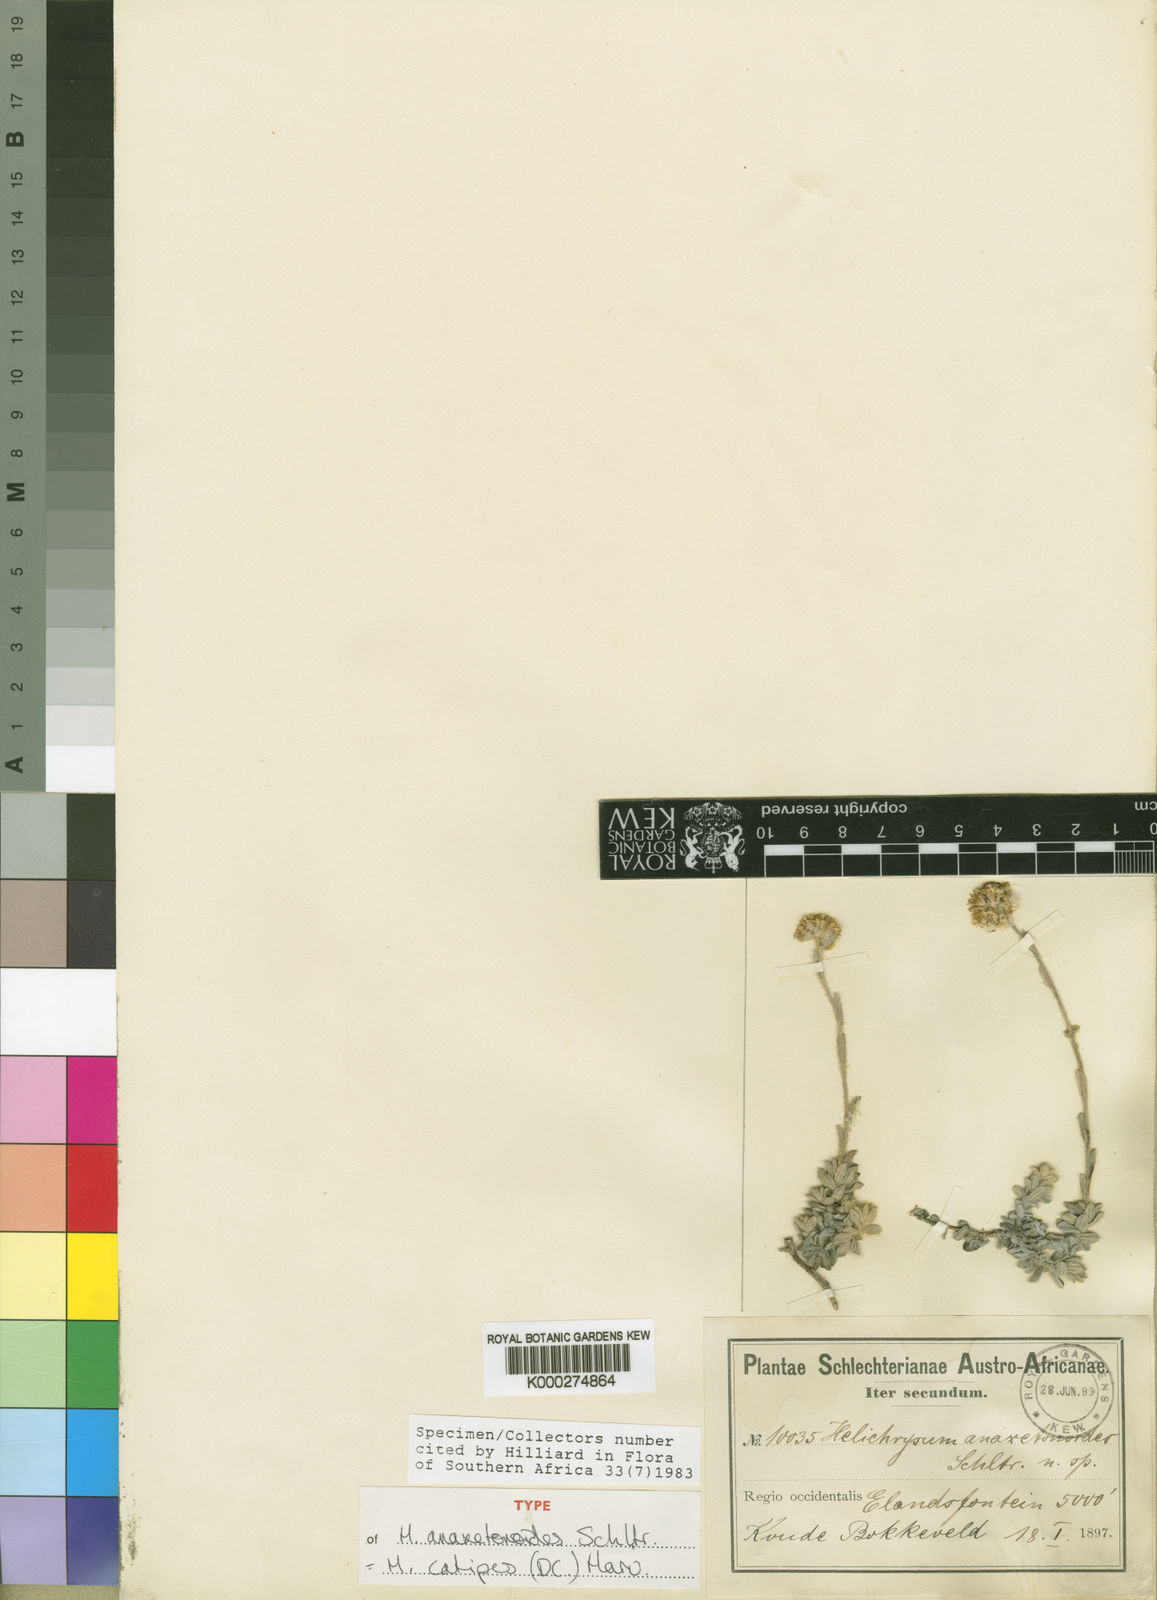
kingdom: Plantae
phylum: Tracheophyta
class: Magnoliopsida
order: Asterales
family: Asteraceae
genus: Helichrysum
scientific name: Helichrysum catipes
